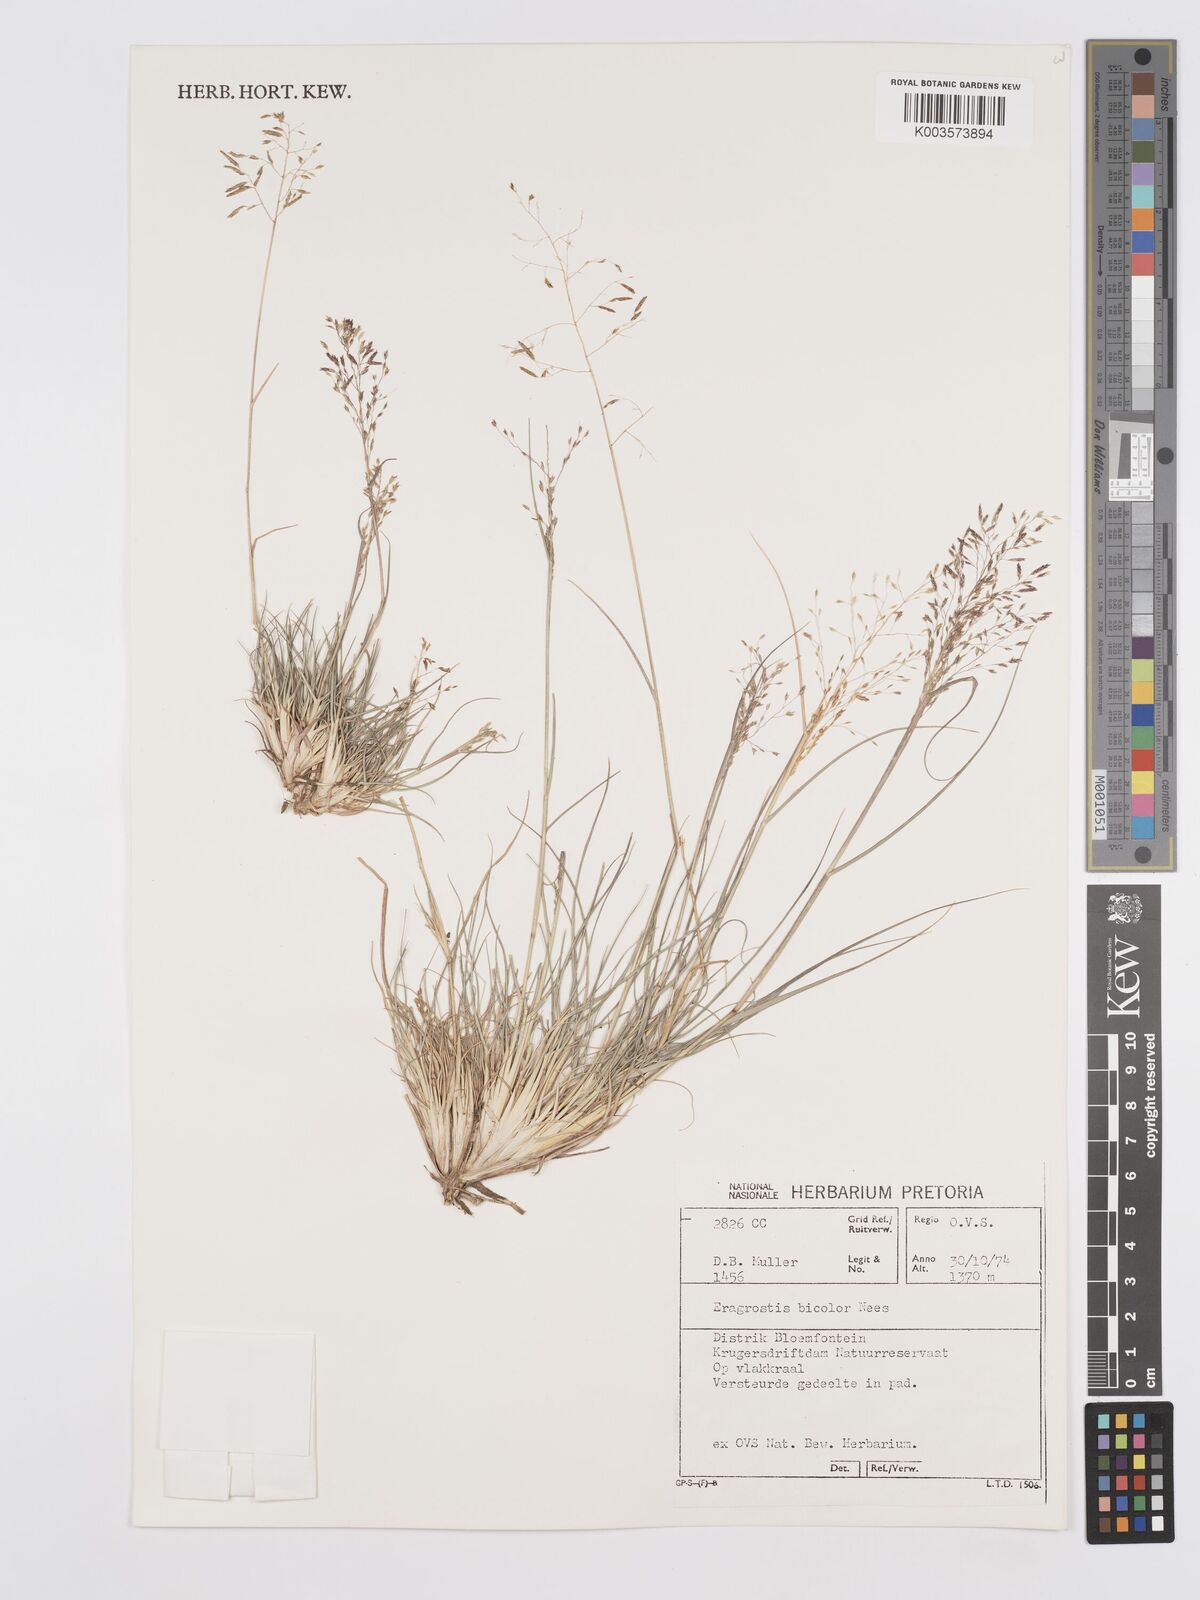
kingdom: Plantae
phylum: Tracheophyta
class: Liliopsida
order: Poales
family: Poaceae
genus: Eragrostis
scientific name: Eragrostis
